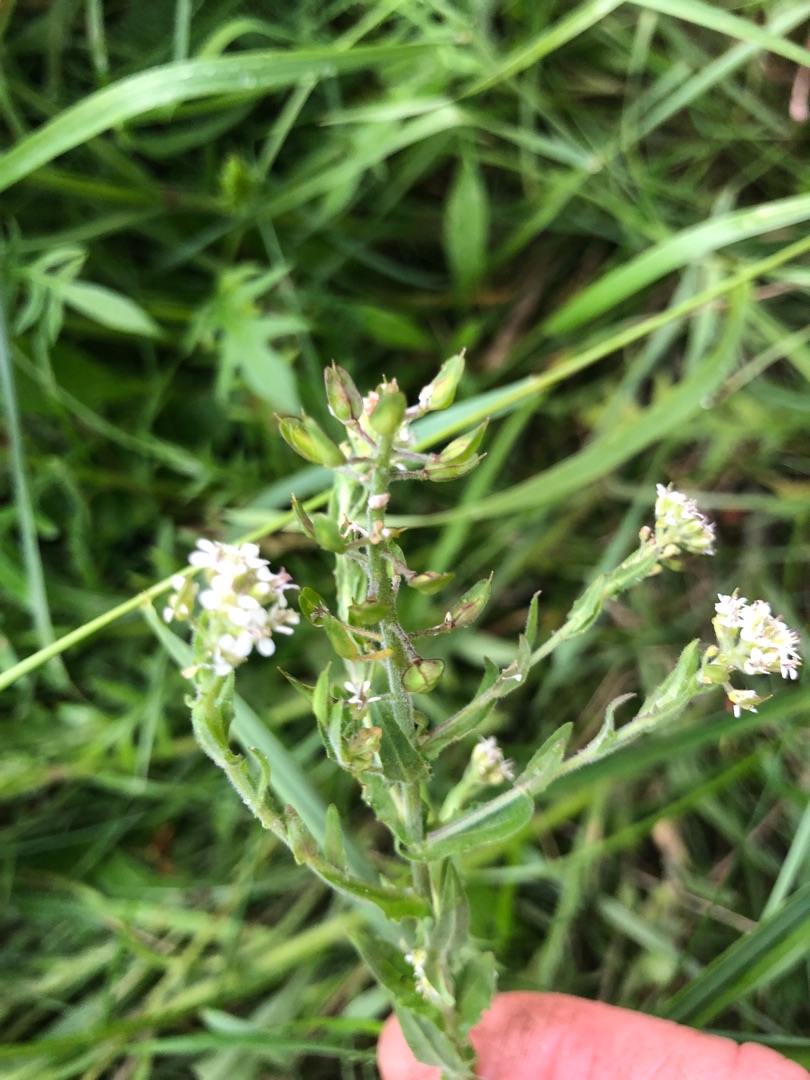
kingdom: Plantae
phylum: Tracheophyta
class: Magnoliopsida
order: Brassicales
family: Brassicaceae
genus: Lepidium
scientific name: Lepidium heterophyllum
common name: Forskelligbladet karse
